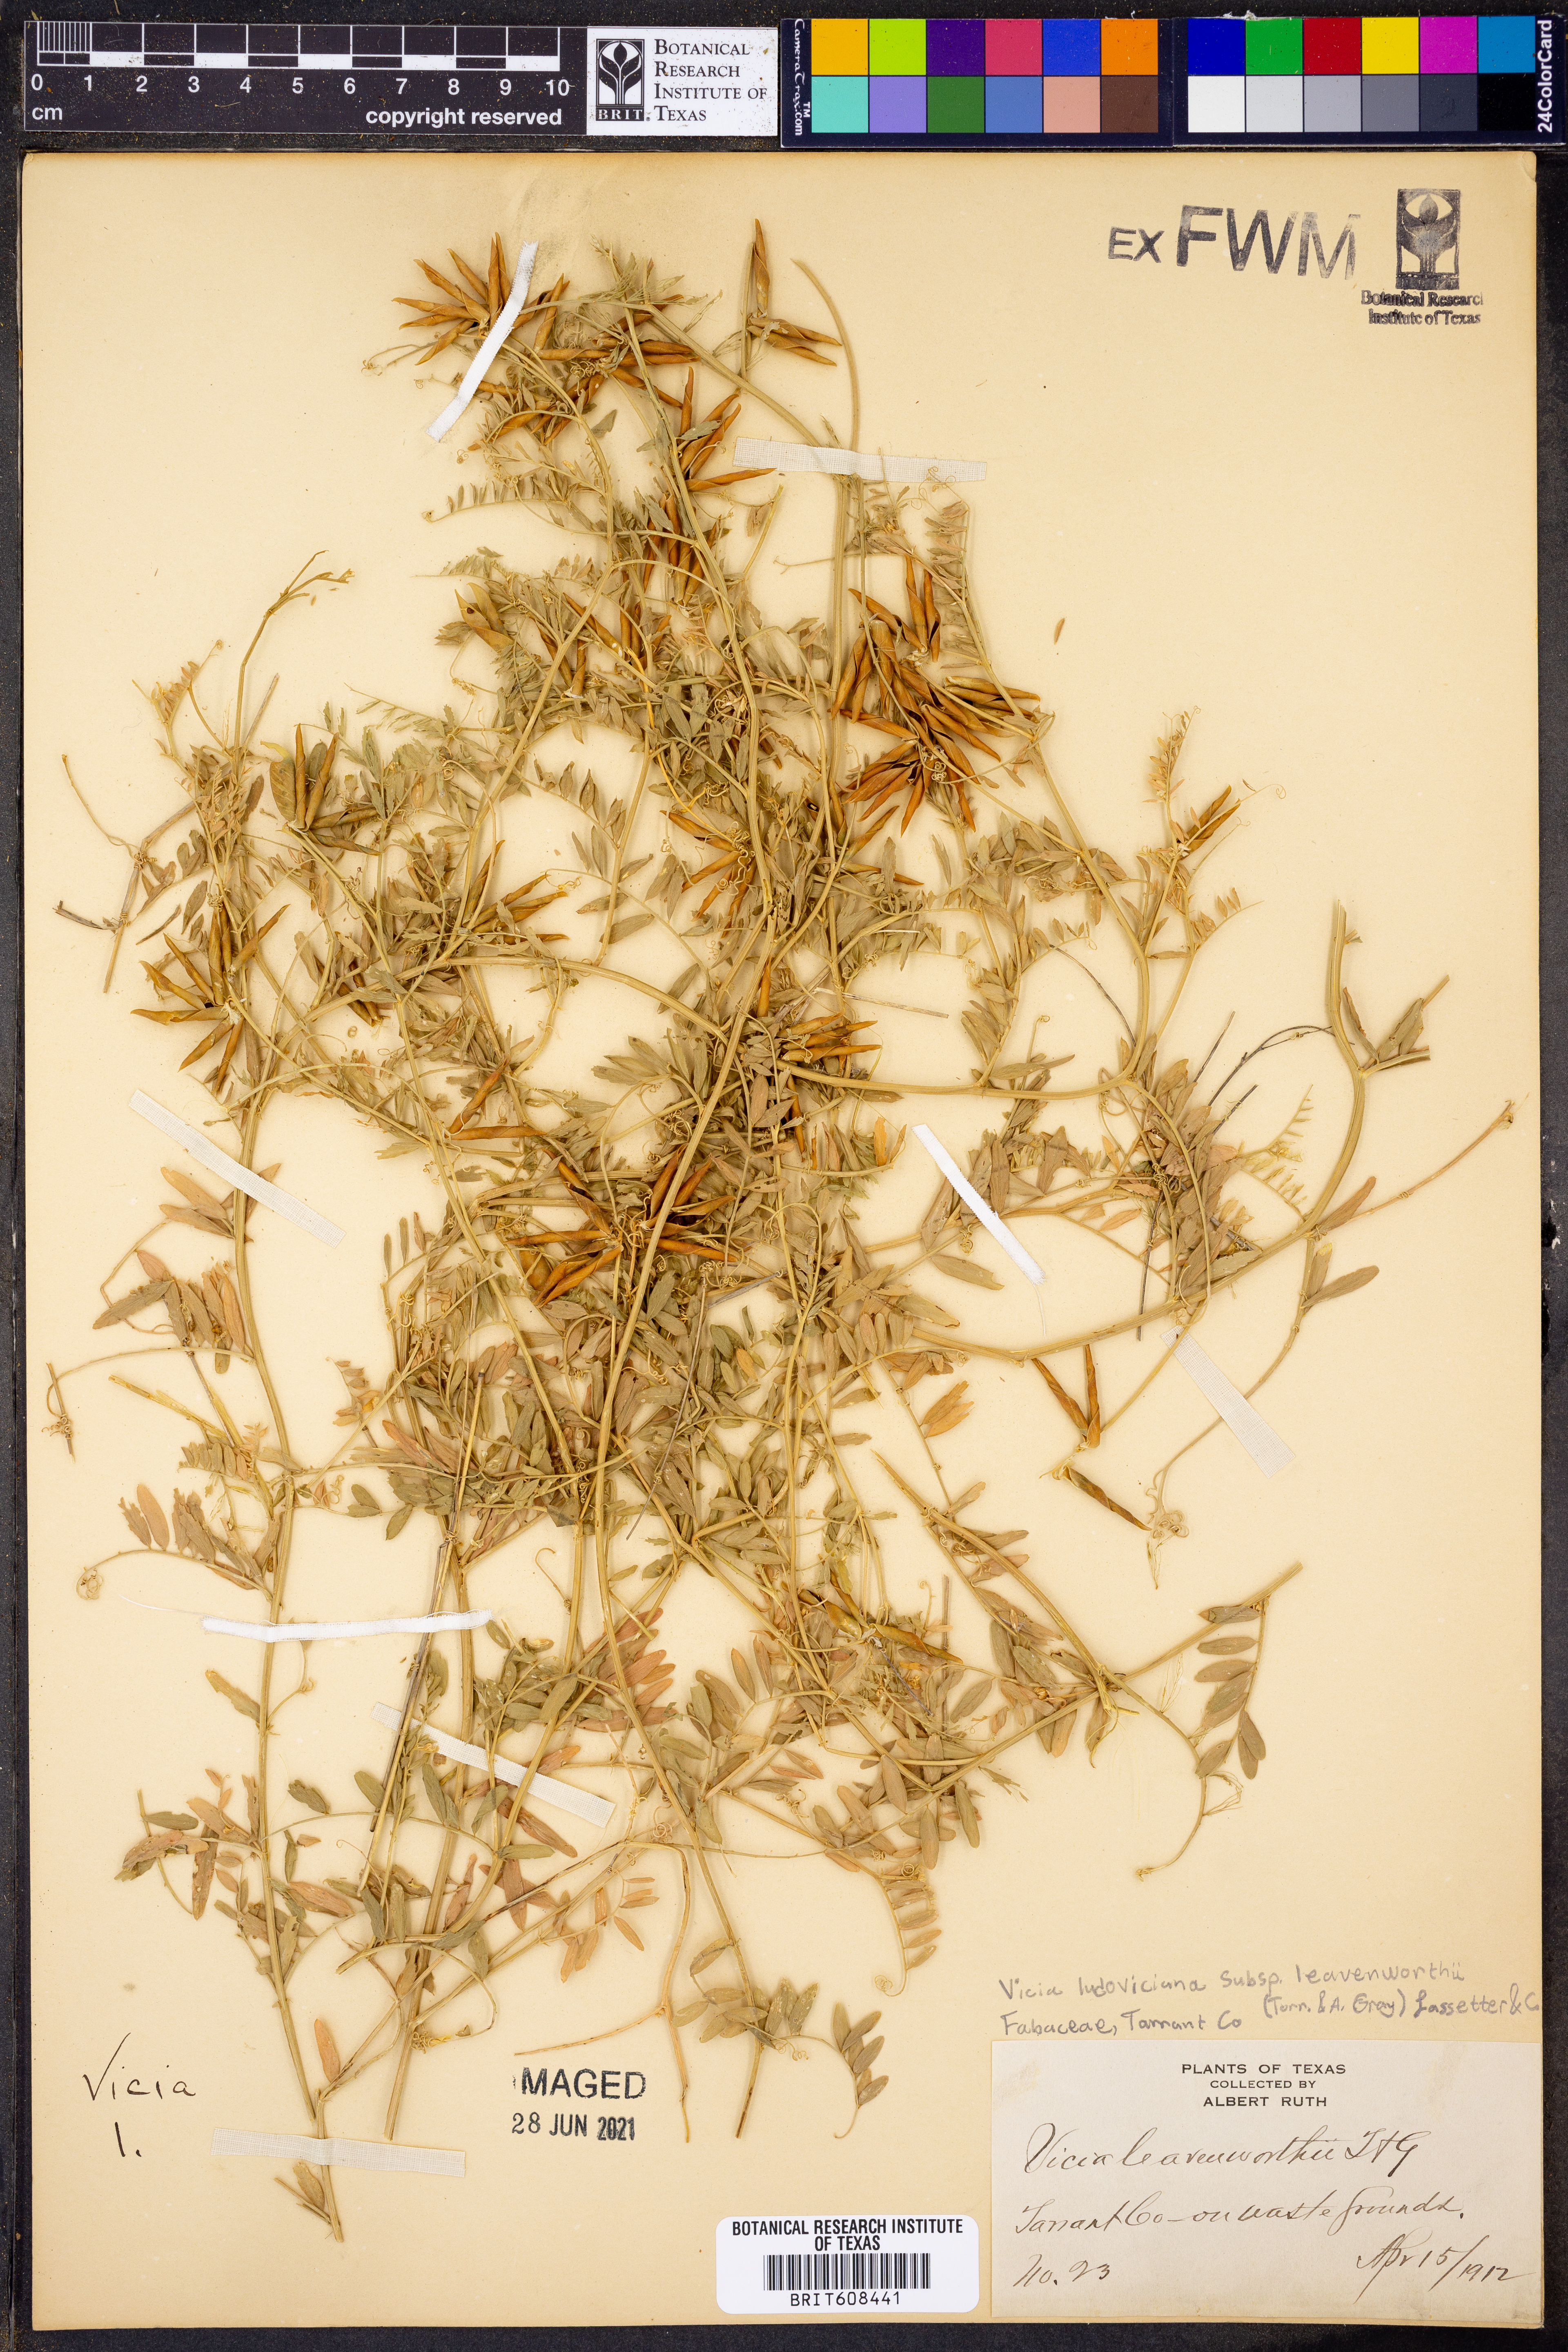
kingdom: Plantae
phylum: Tracheophyta
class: Magnoliopsida
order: Fabales
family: Fabaceae
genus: Vicia
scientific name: Vicia ludoviciana
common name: Louisiana vetch
